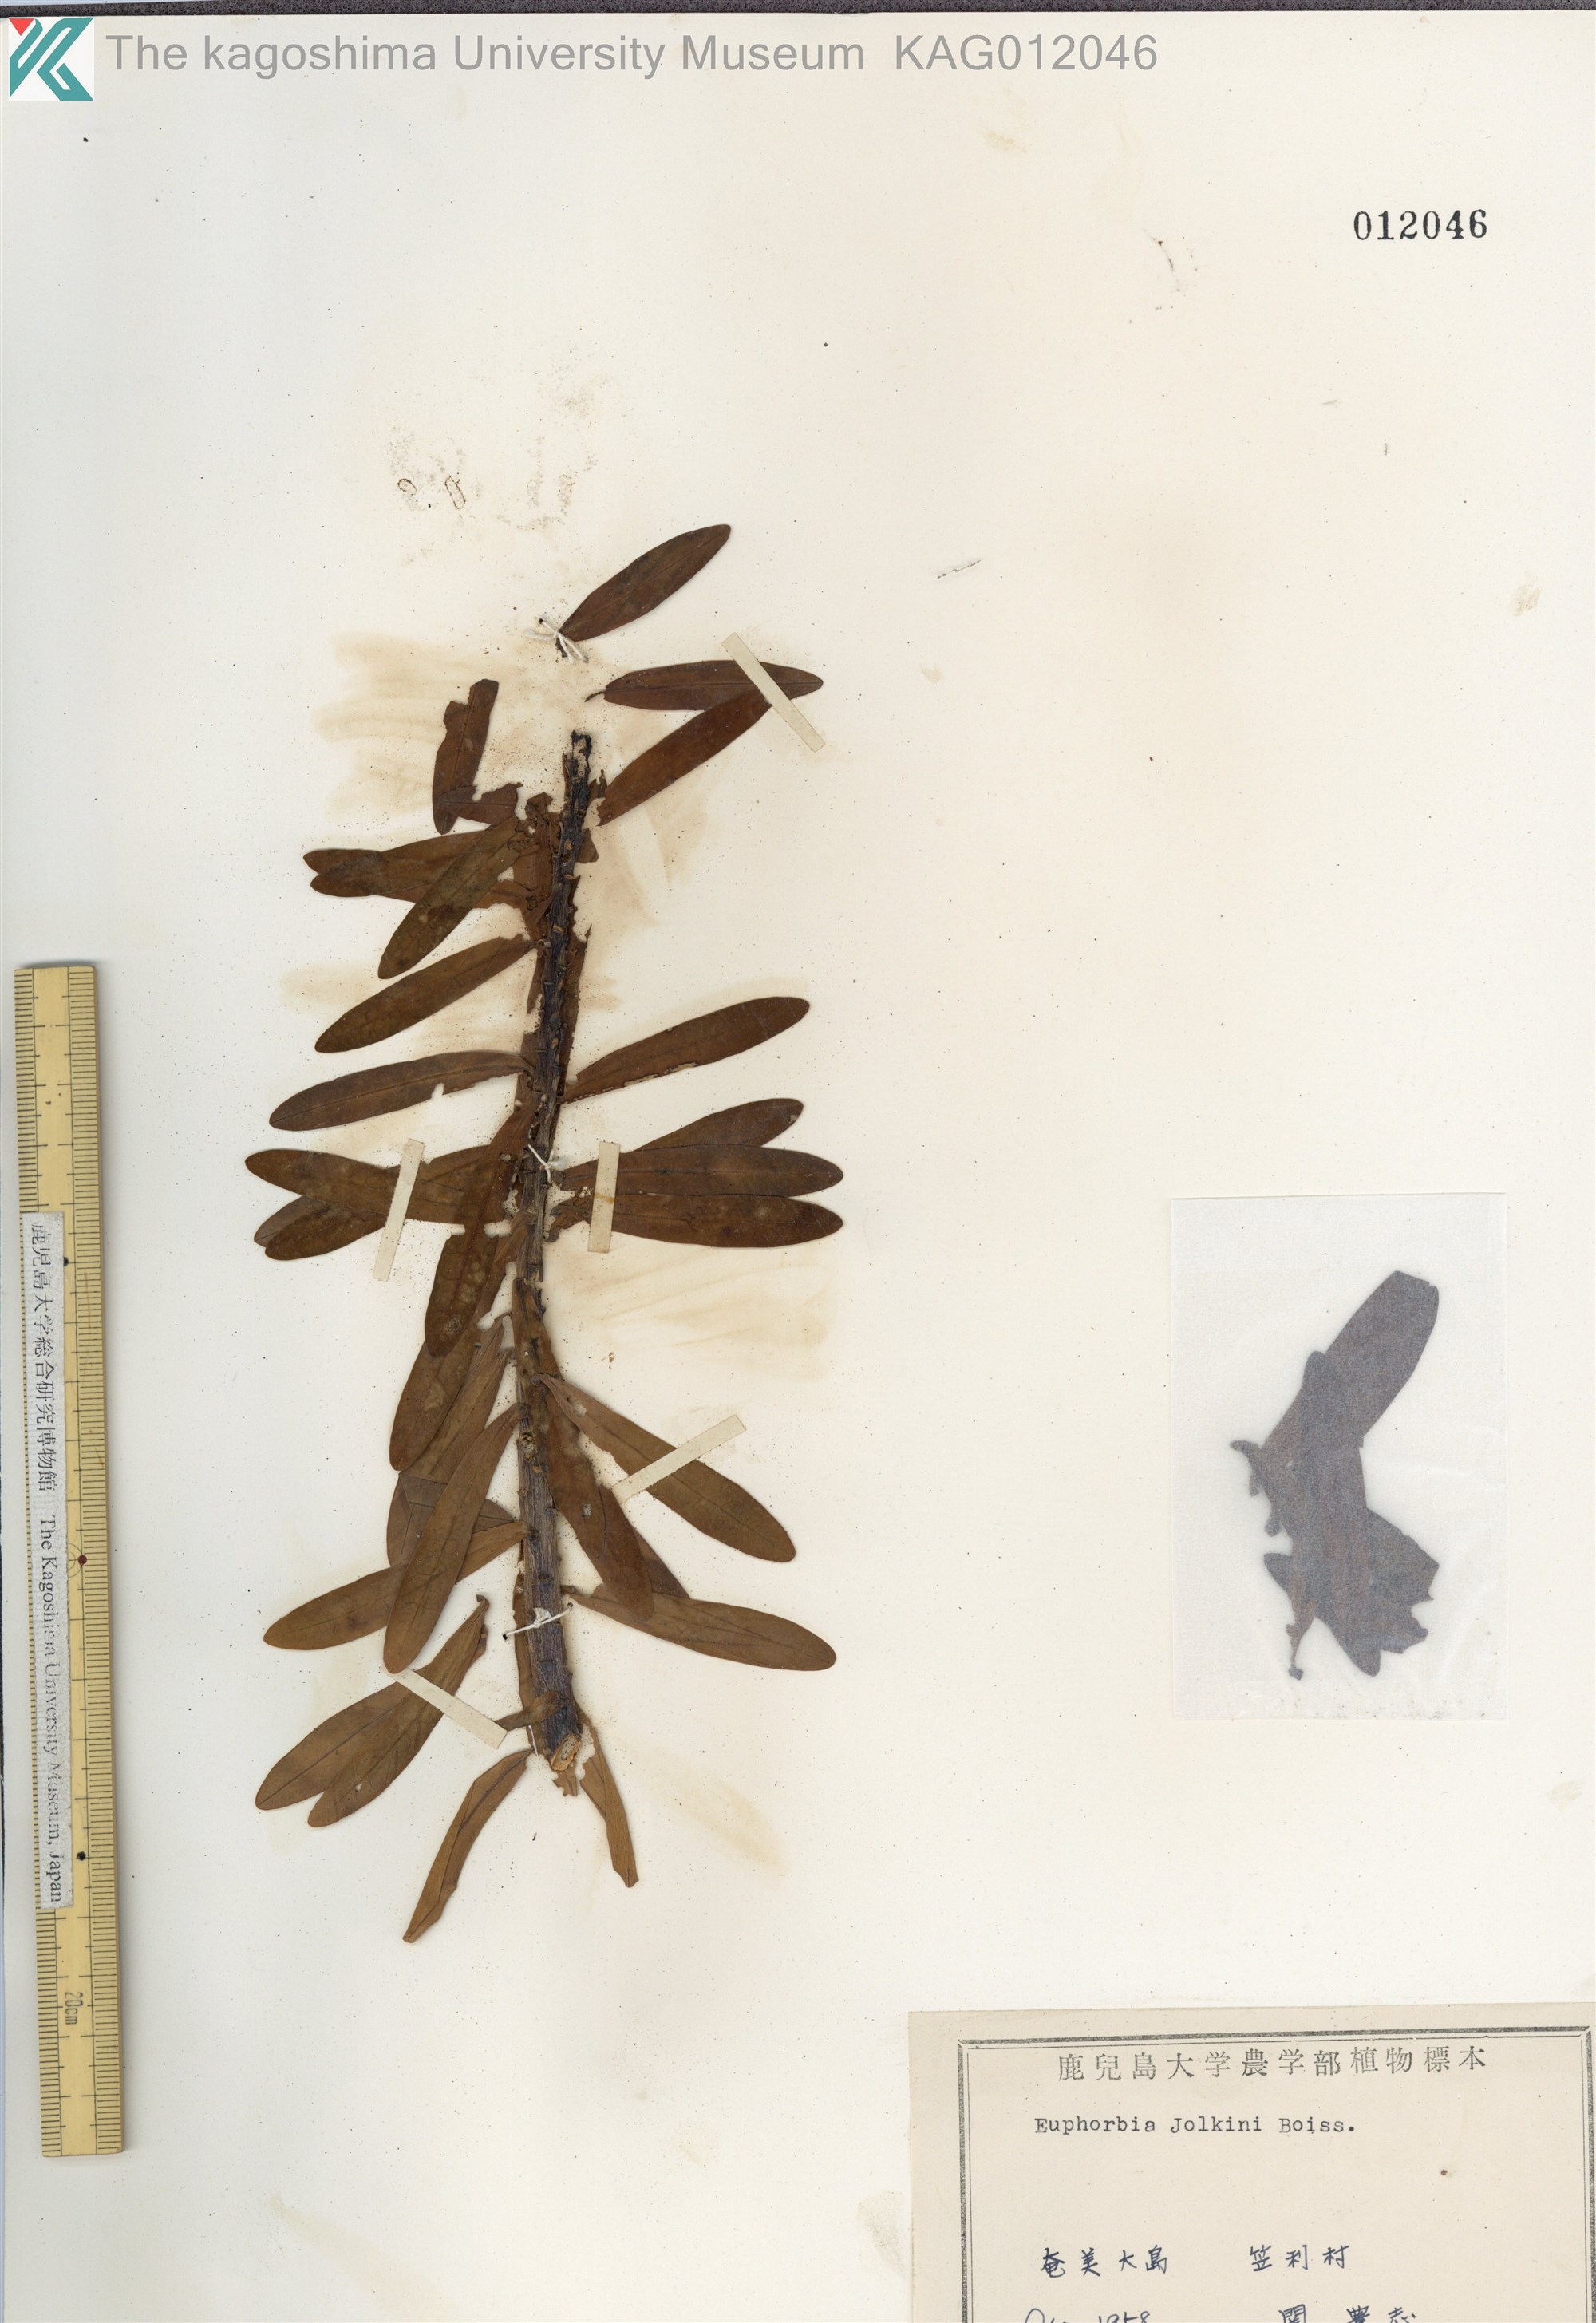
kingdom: Plantae
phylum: Tracheophyta
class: Magnoliopsida
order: Malpighiales
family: Euphorbiaceae
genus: Euphorbia
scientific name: Euphorbia jolkinii
